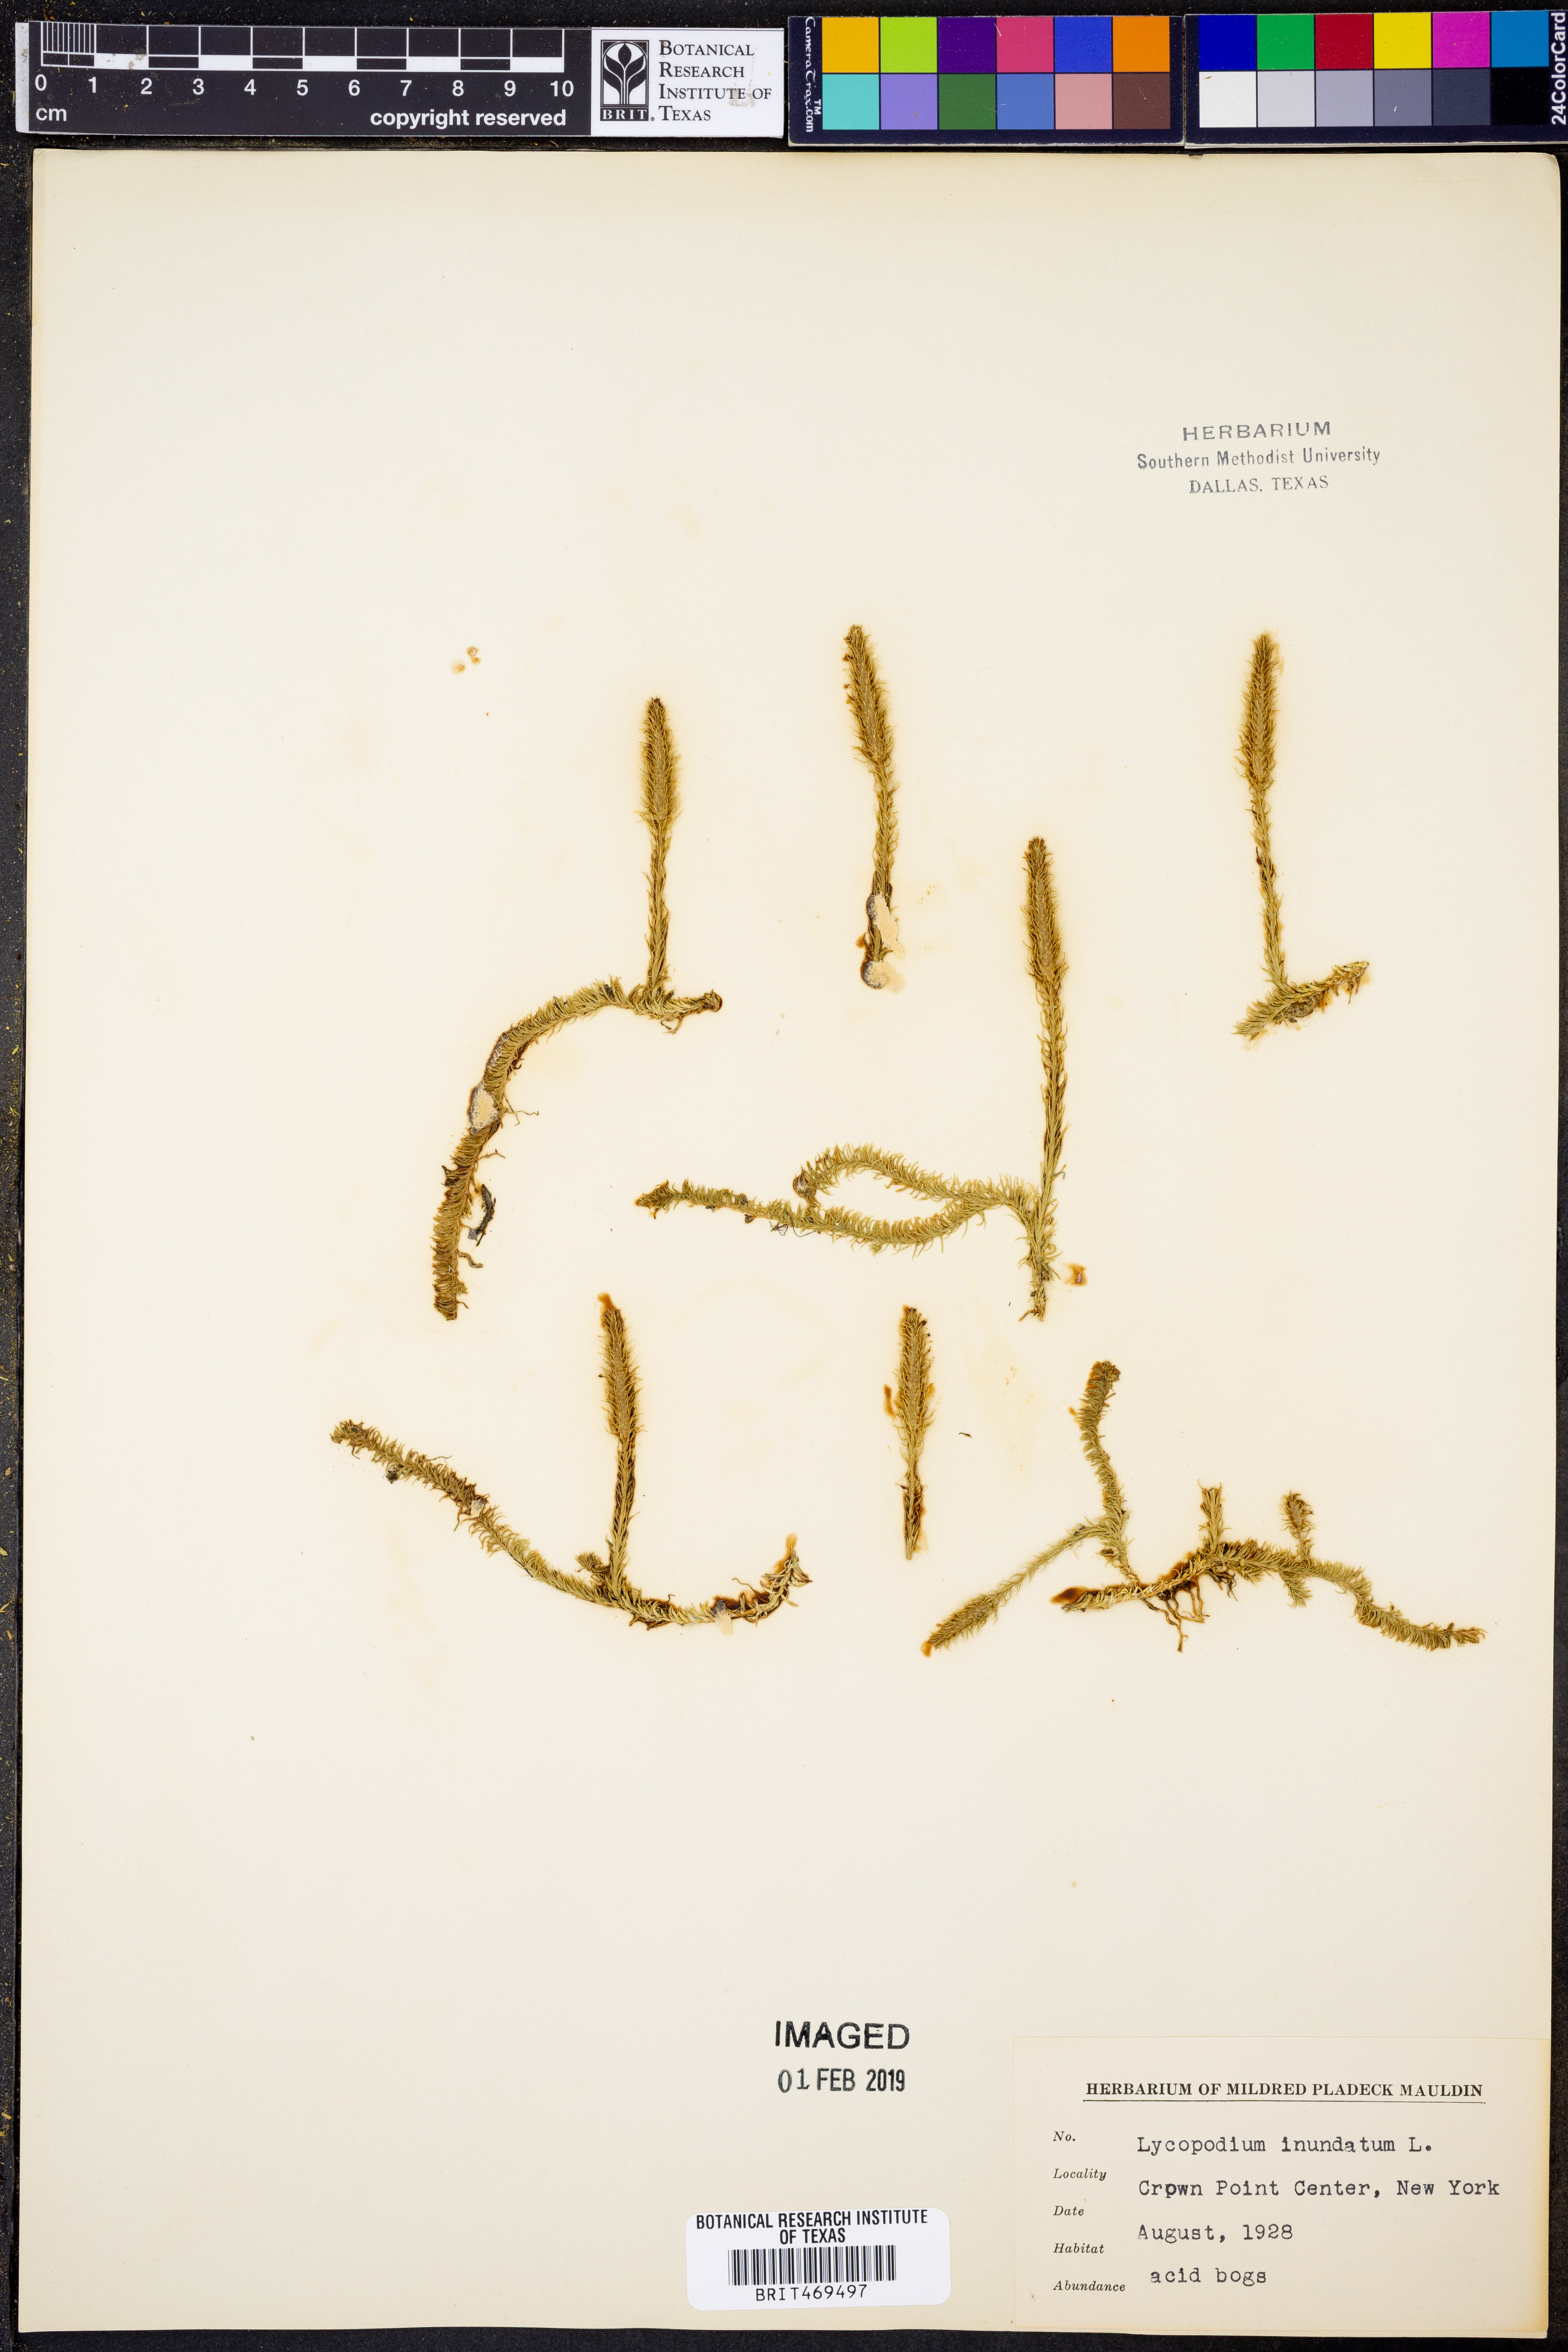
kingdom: Plantae
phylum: Tracheophyta
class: Lycopodiopsida
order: Lycopodiales
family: Lycopodiaceae
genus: Lycopodiella
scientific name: Lycopodiella inundata
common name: Marsh clubmoss
